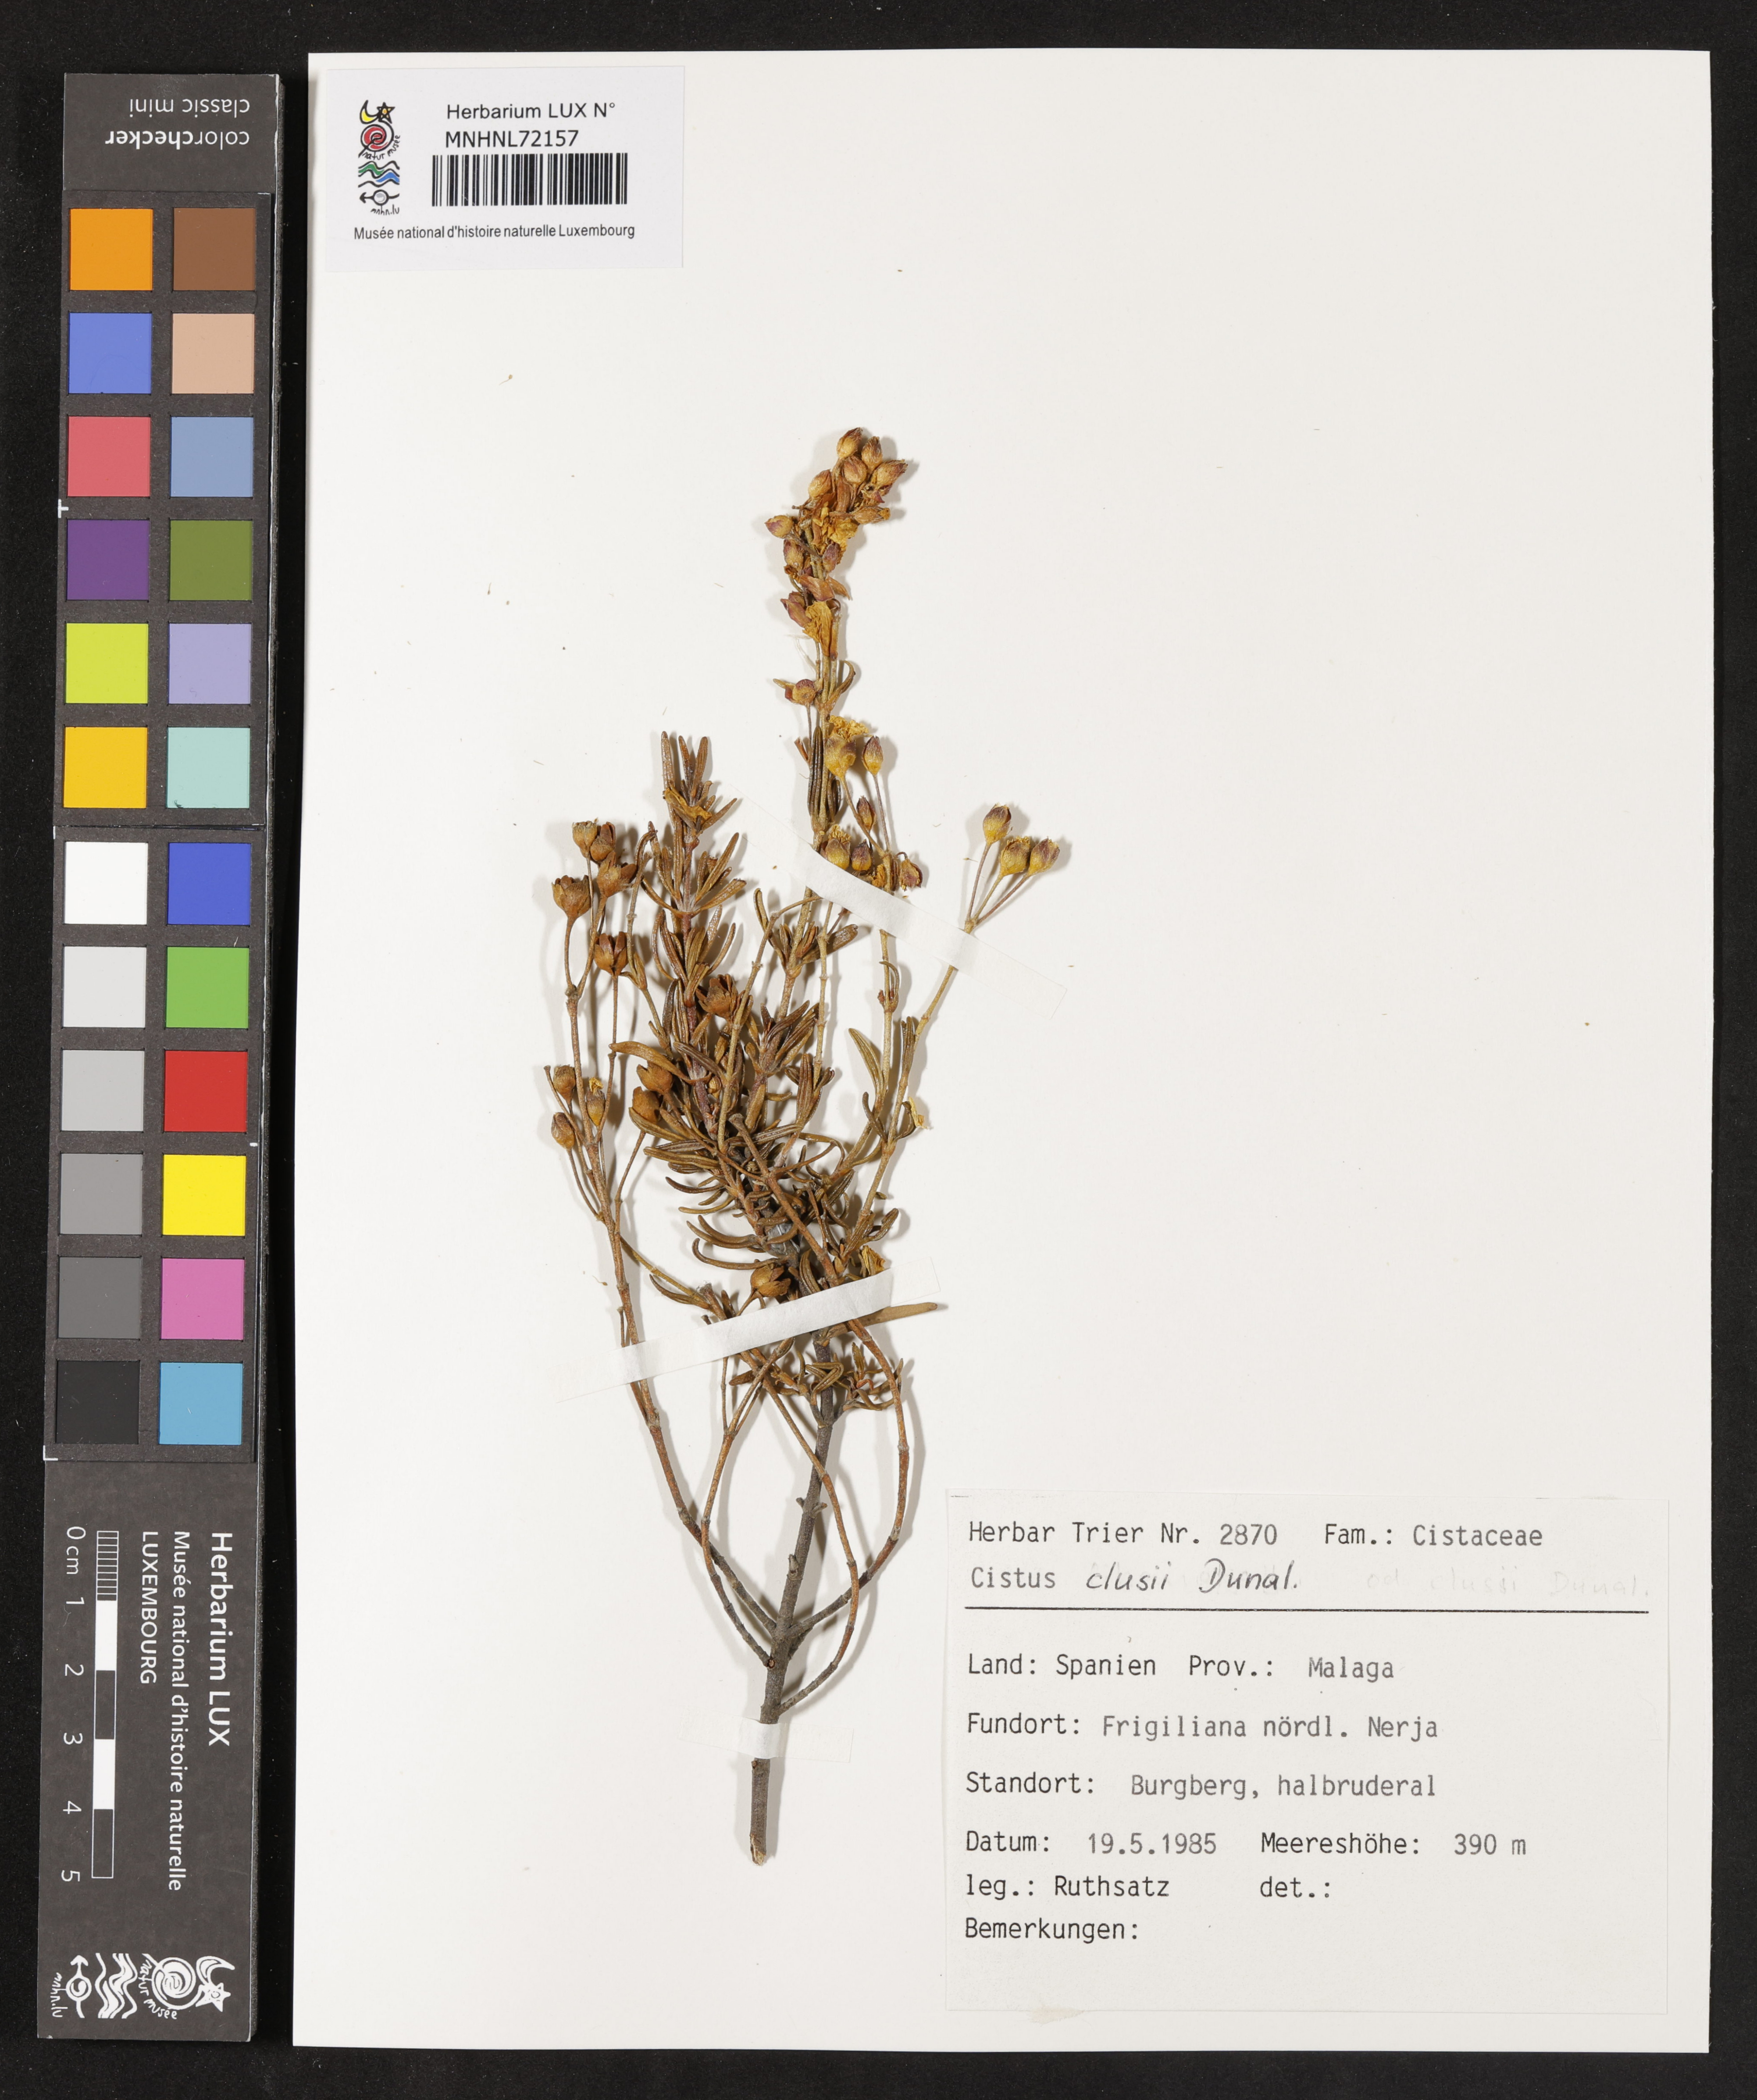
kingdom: Plantae
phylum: Tracheophyta
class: Magnoliopsida
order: Malvales
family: Cistaceae
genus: Cistus
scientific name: Cistus clusii
